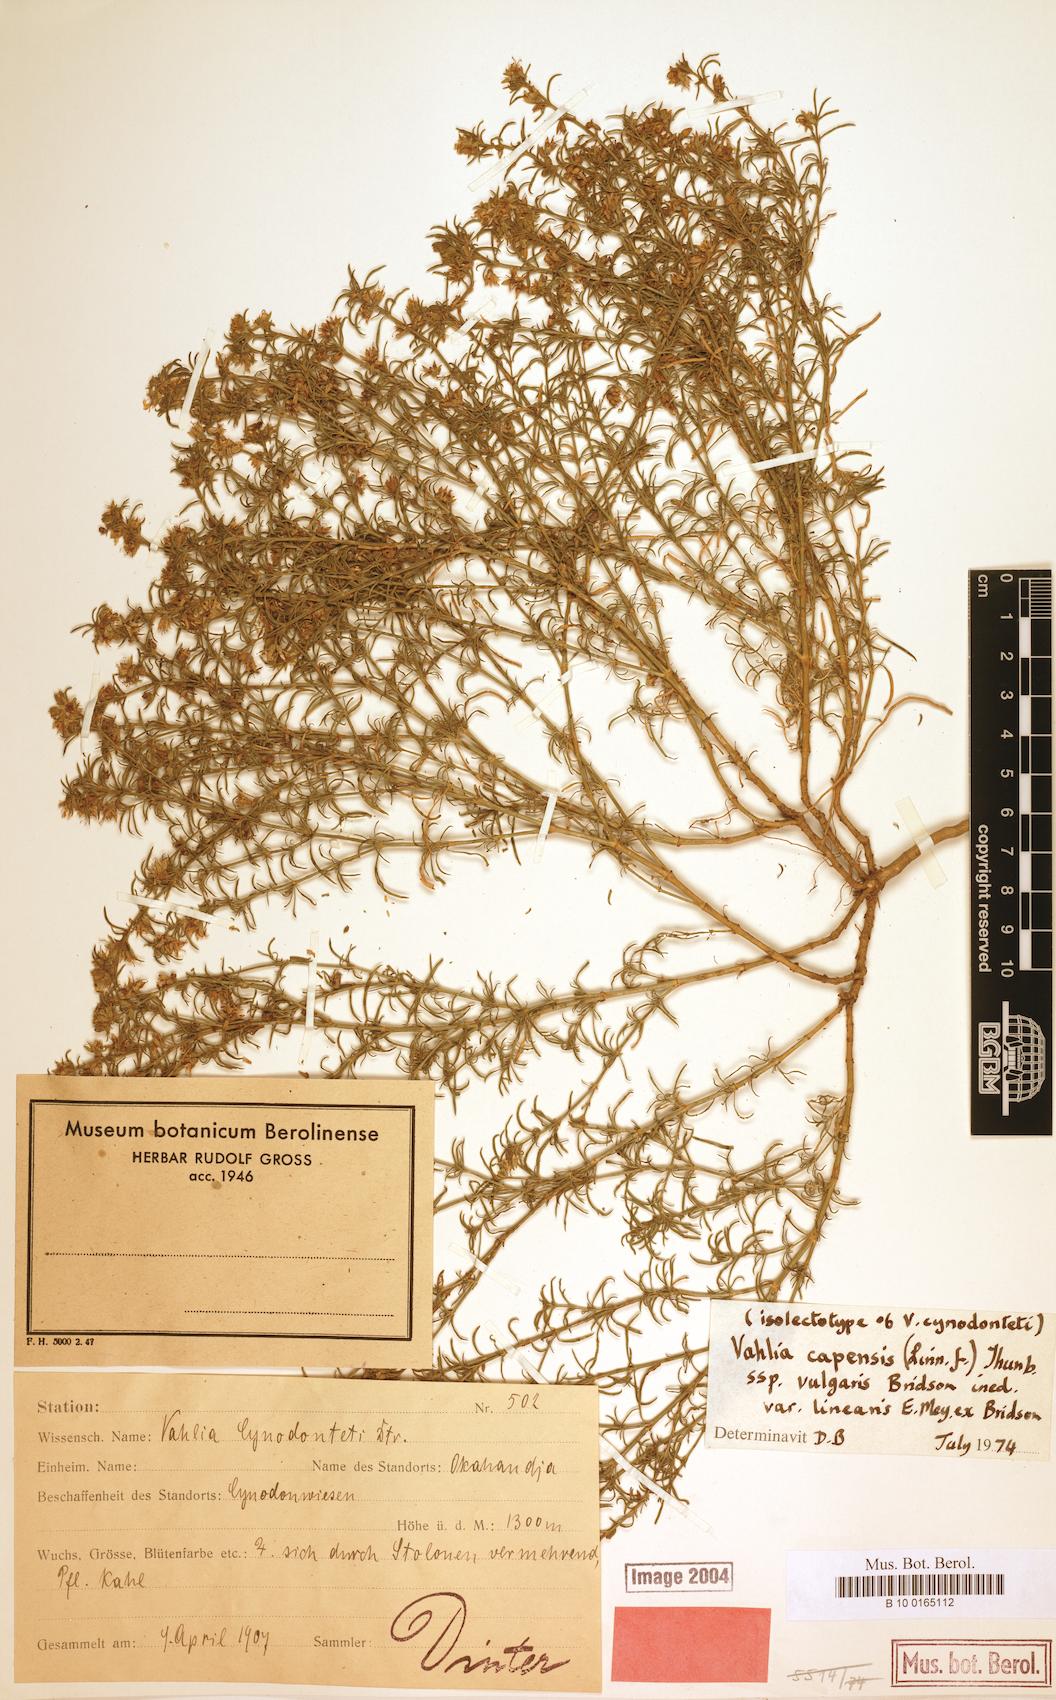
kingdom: Plantae
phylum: Tracheophyta
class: Magnoliopsida
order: Vahliales
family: Vahliaceae
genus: Vahlia
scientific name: Vahlia capensis
